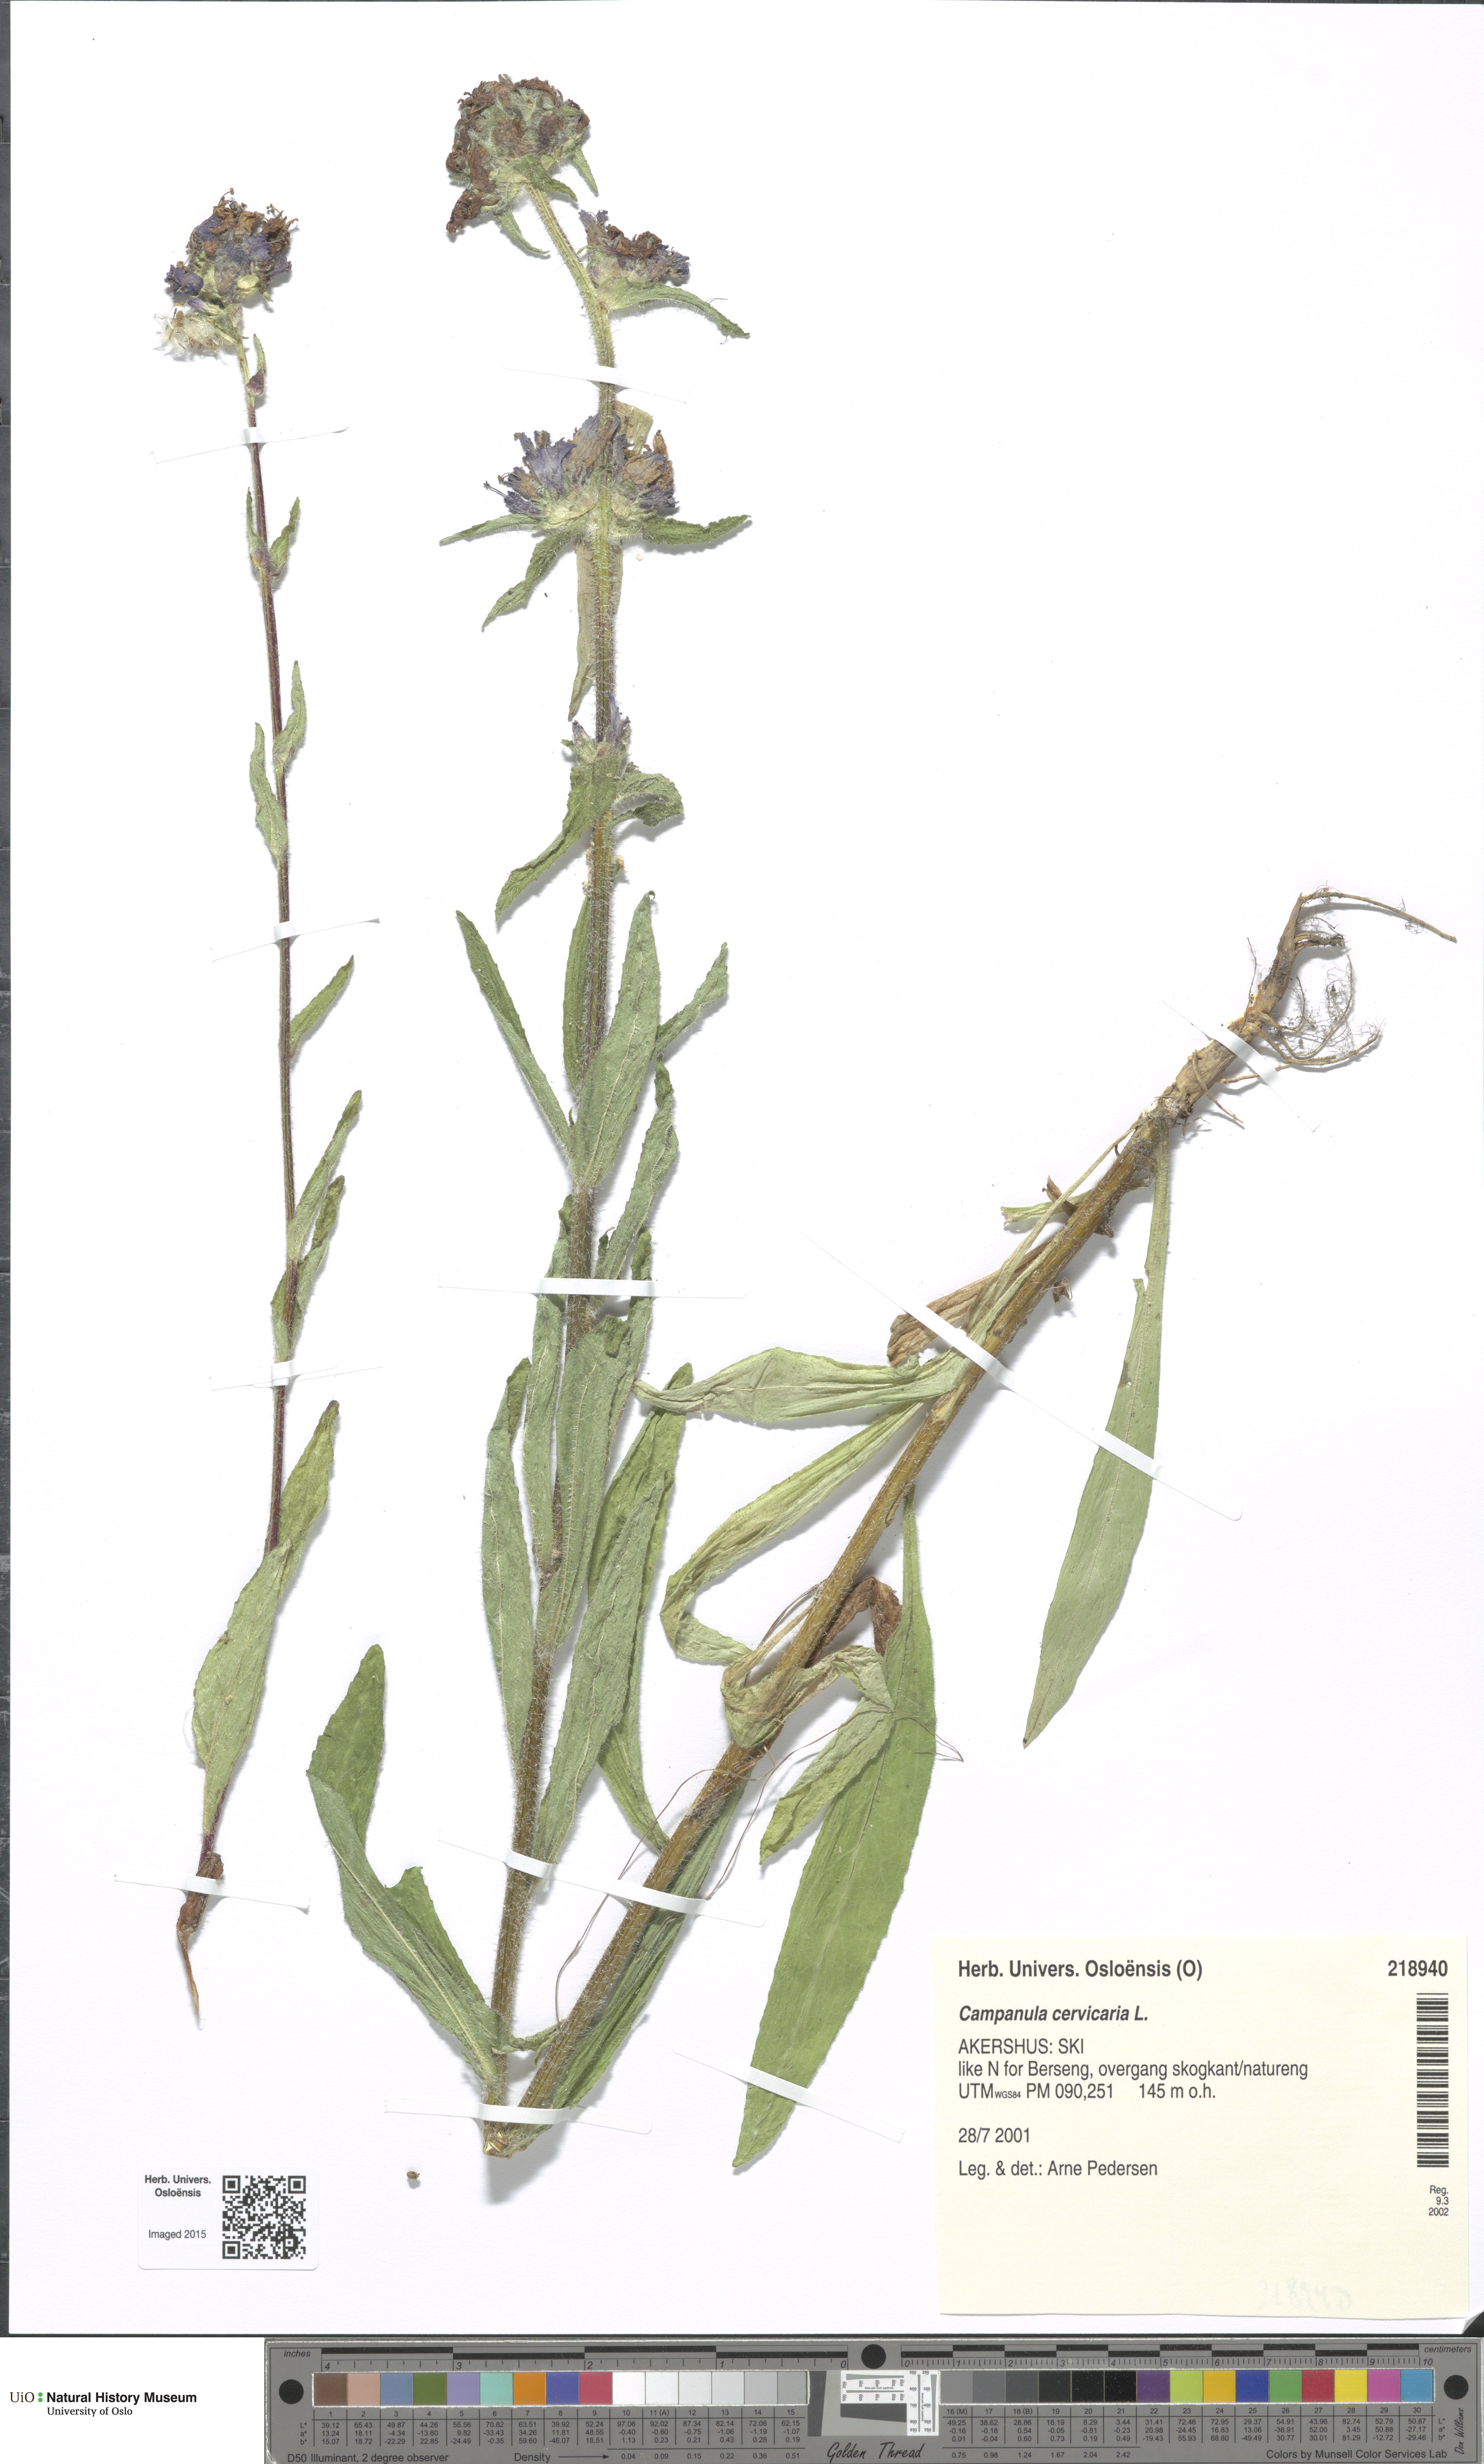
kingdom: Plantae
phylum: Tracheophyta
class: Magnoliopsida
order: Asterales
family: Campanulaceae
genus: Campanula
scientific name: Campanula cervicaria
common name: Bristly bellflower
